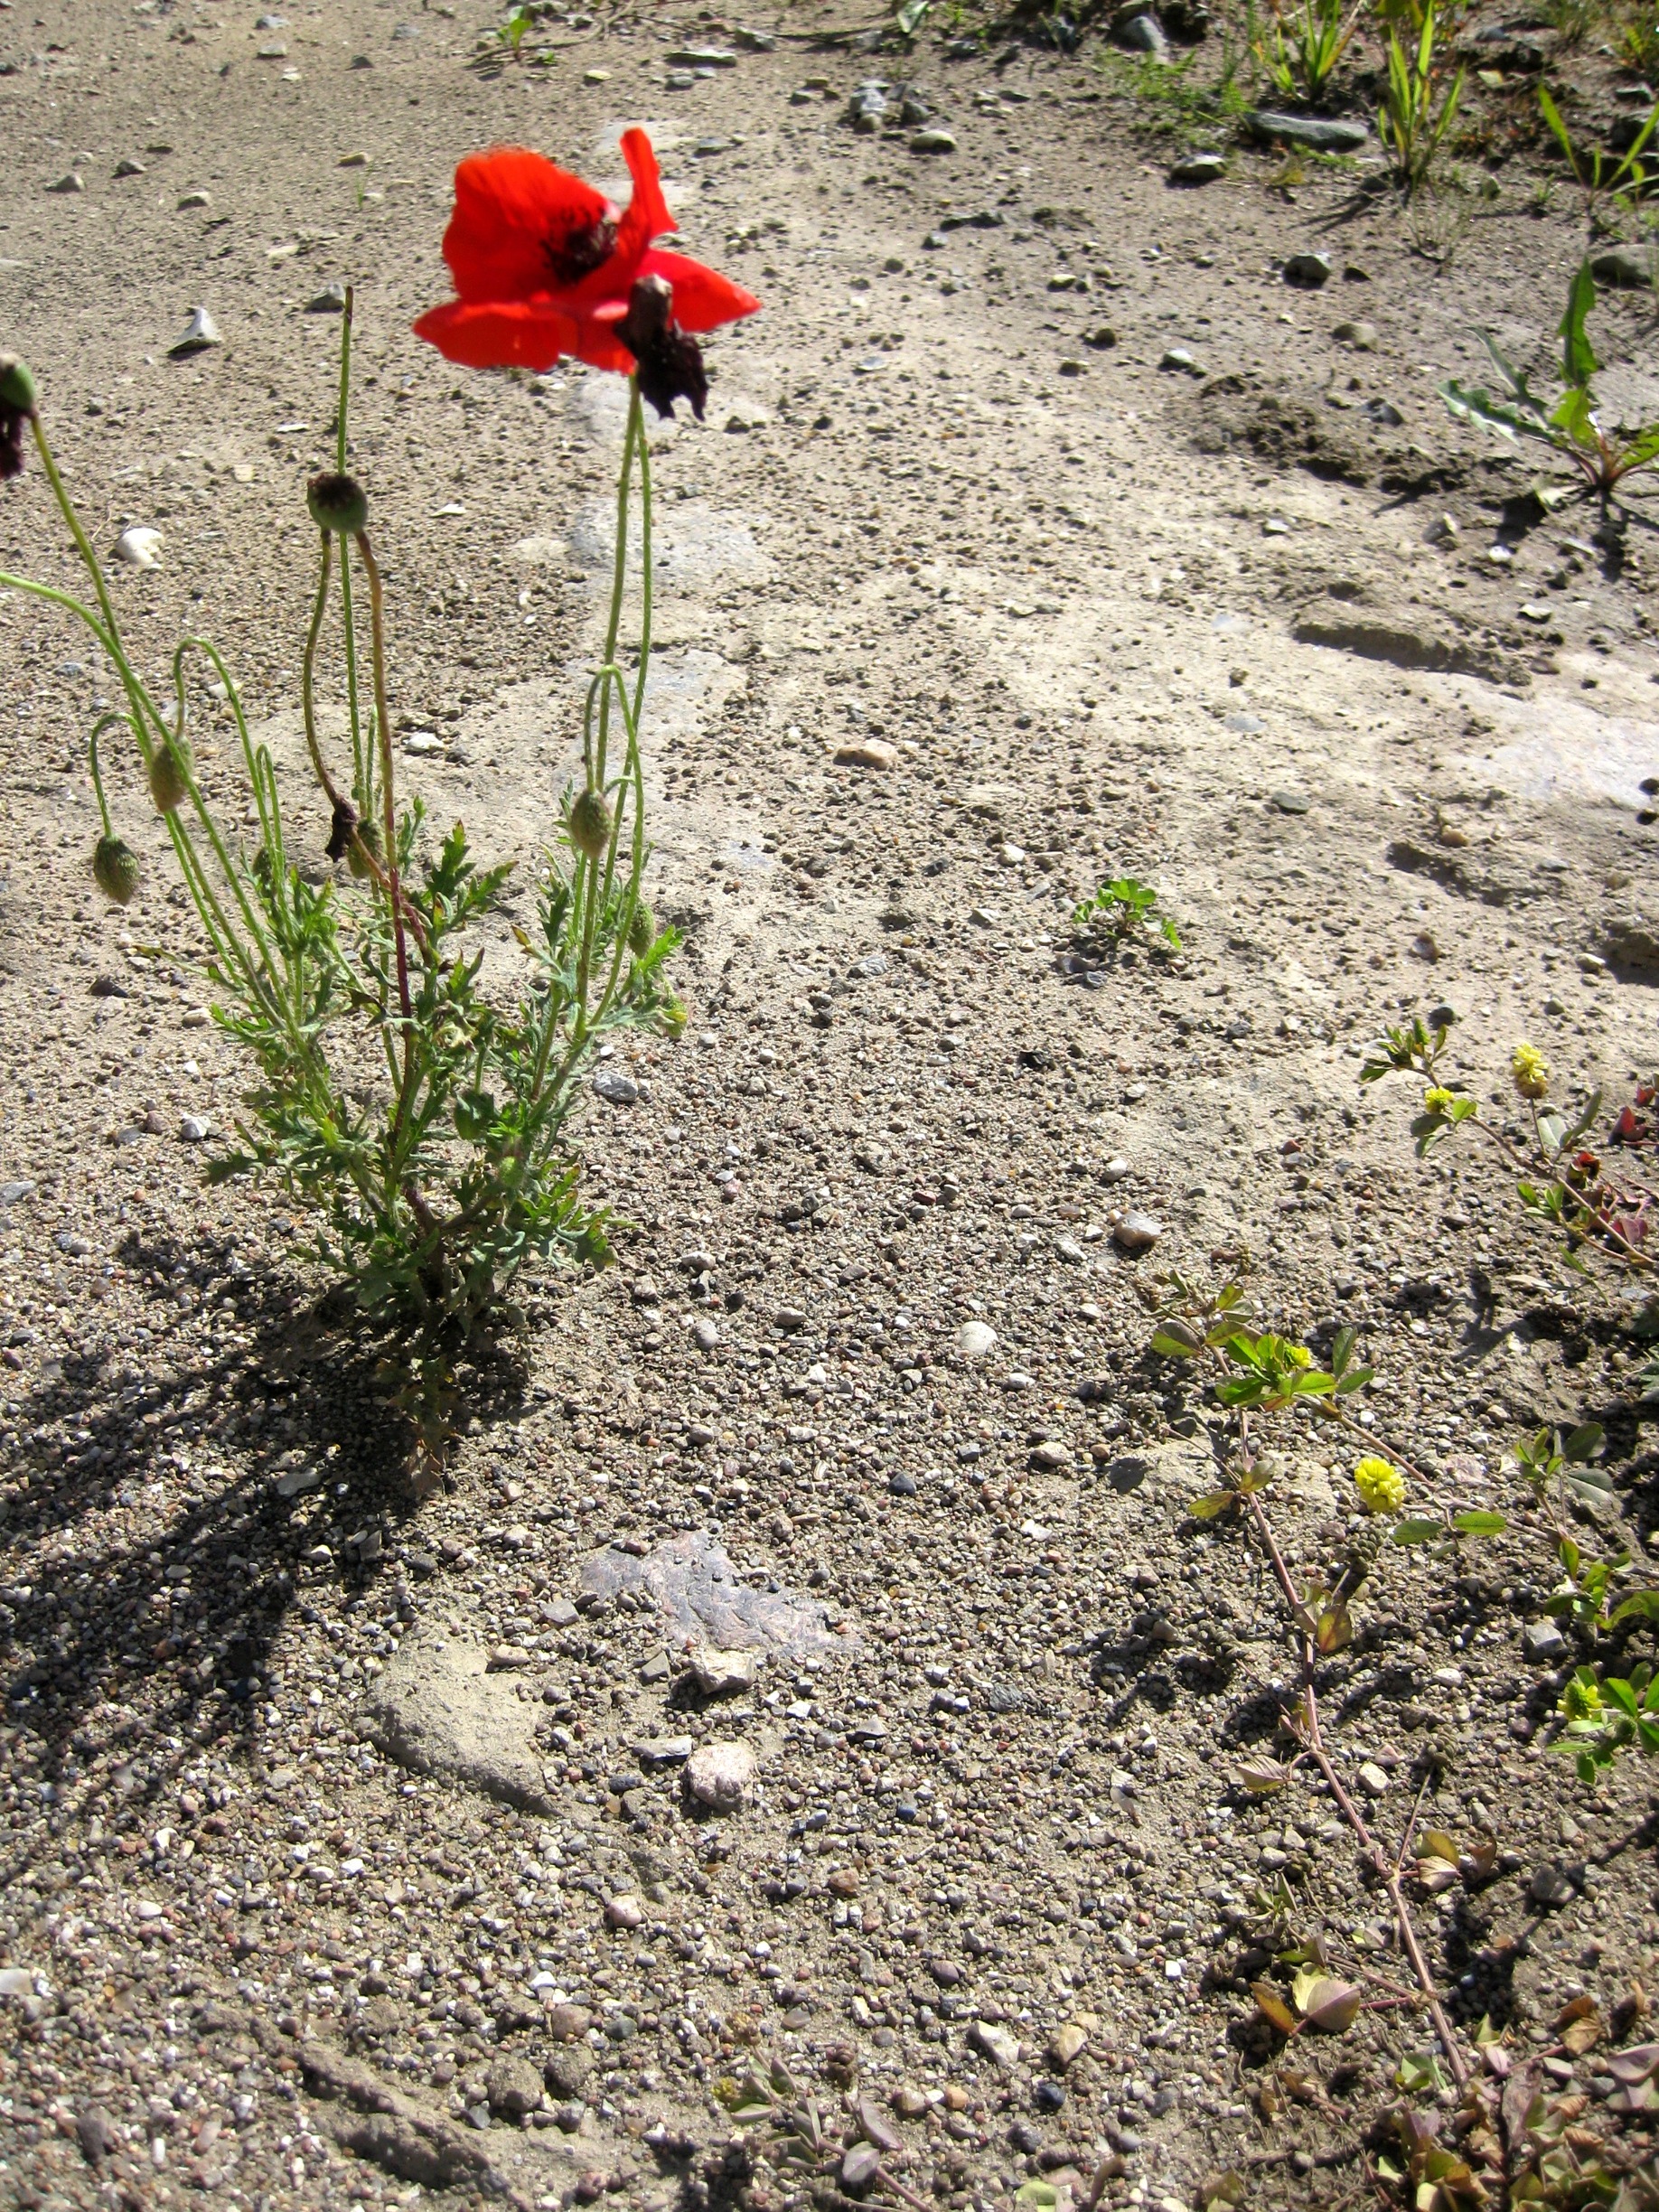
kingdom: Plantae
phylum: Tracheophyta
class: Magnoliopsida
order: Ranunculales
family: Papaveraceae
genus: Papaver
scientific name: Papaver rhoeas
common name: Korn-valmue
